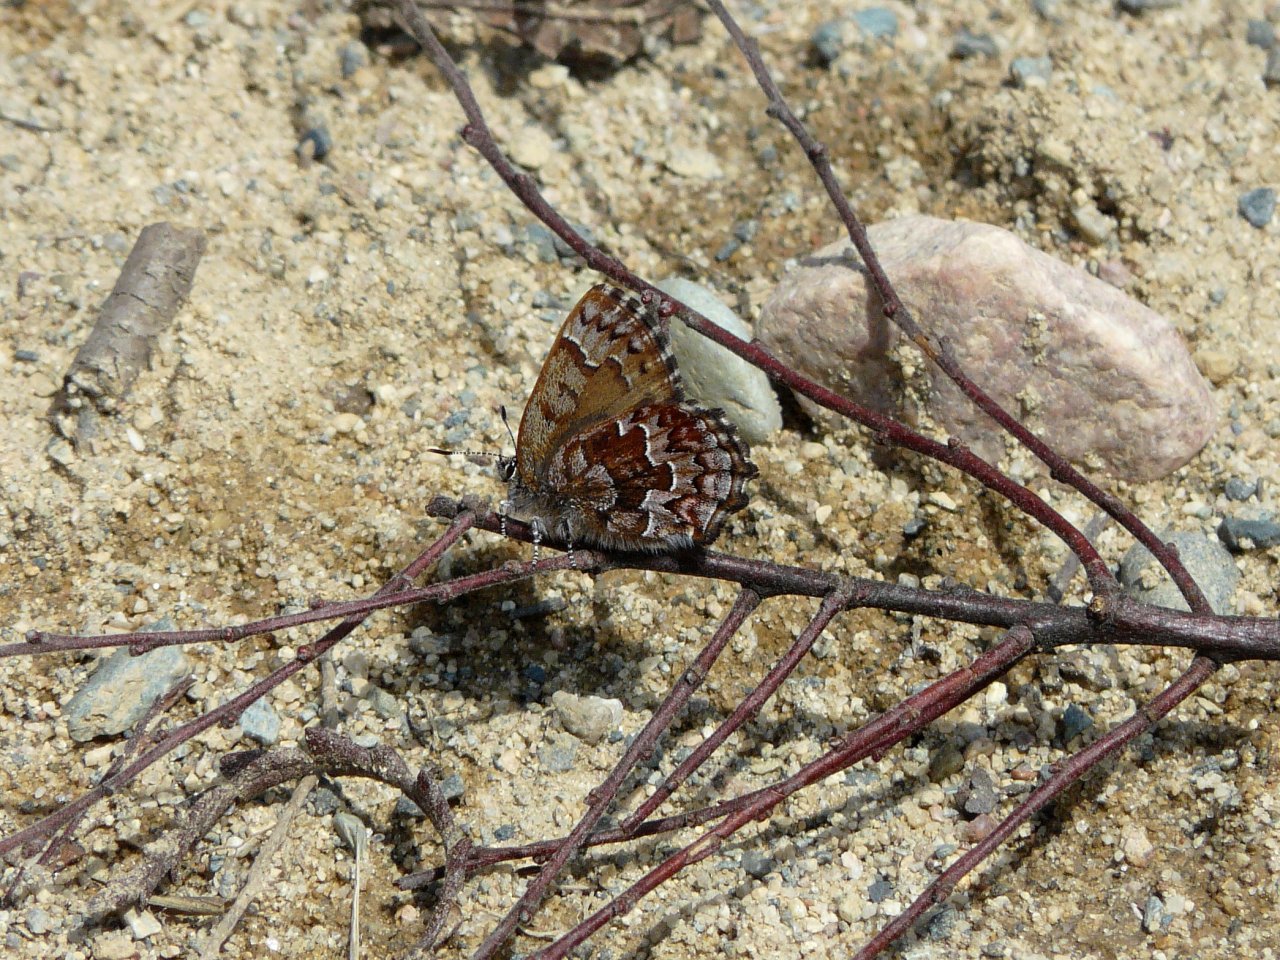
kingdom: Animalia
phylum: Arthropoda
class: Insecta
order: Lepidoptera
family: Lycaenidae
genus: Incisalia
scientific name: Incisalia niphon
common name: Eastern Pine Elfin
